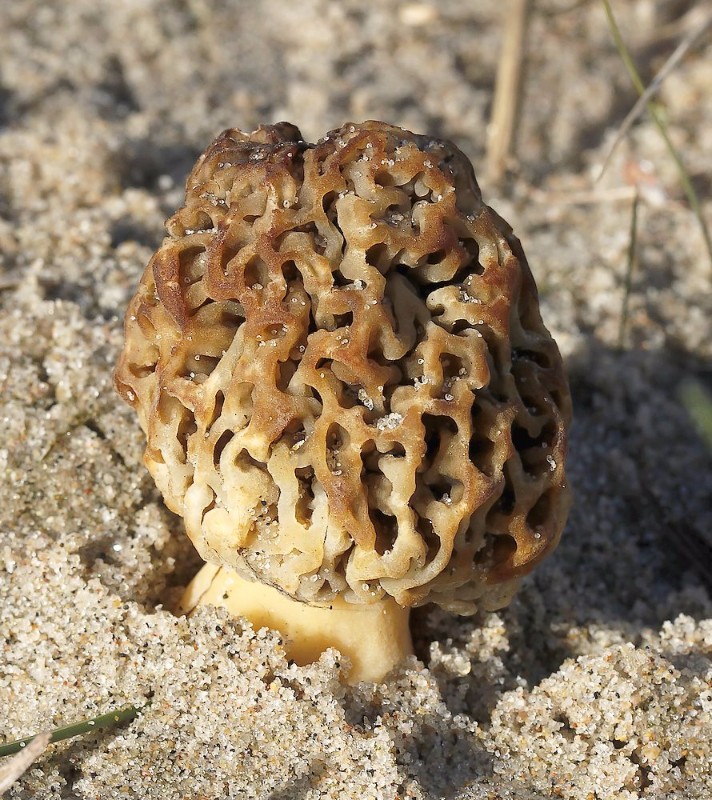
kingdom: Fungi
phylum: Ascomycota
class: Pezizomycetes
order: Pezizales
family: Morchellaceae
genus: Morchella
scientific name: Morchella esculenta
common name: Morel
